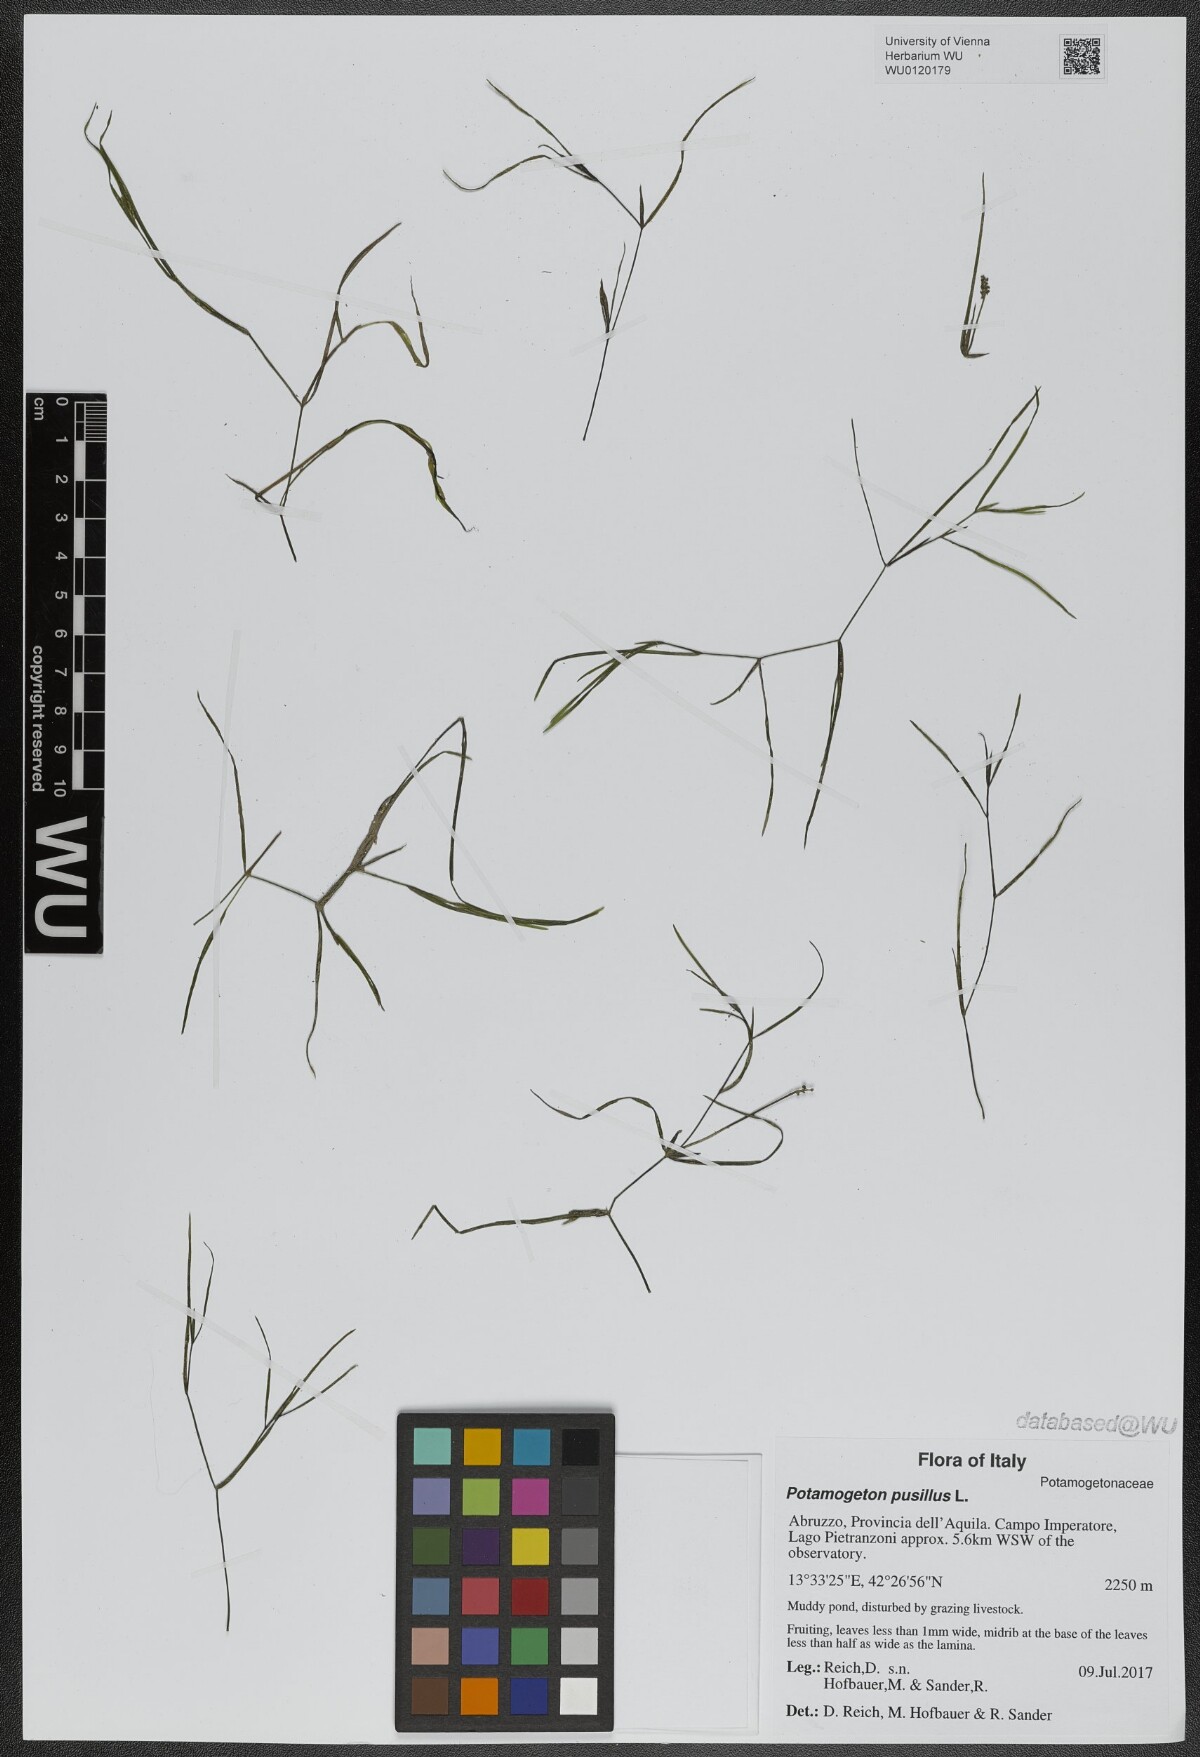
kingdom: Plantae
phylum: Tracheophyta
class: Liliopsida
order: Alismatales
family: Potamogetonaceae
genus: Potamogeton
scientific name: Potamogeton pusillus
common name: Lesser pondweed
